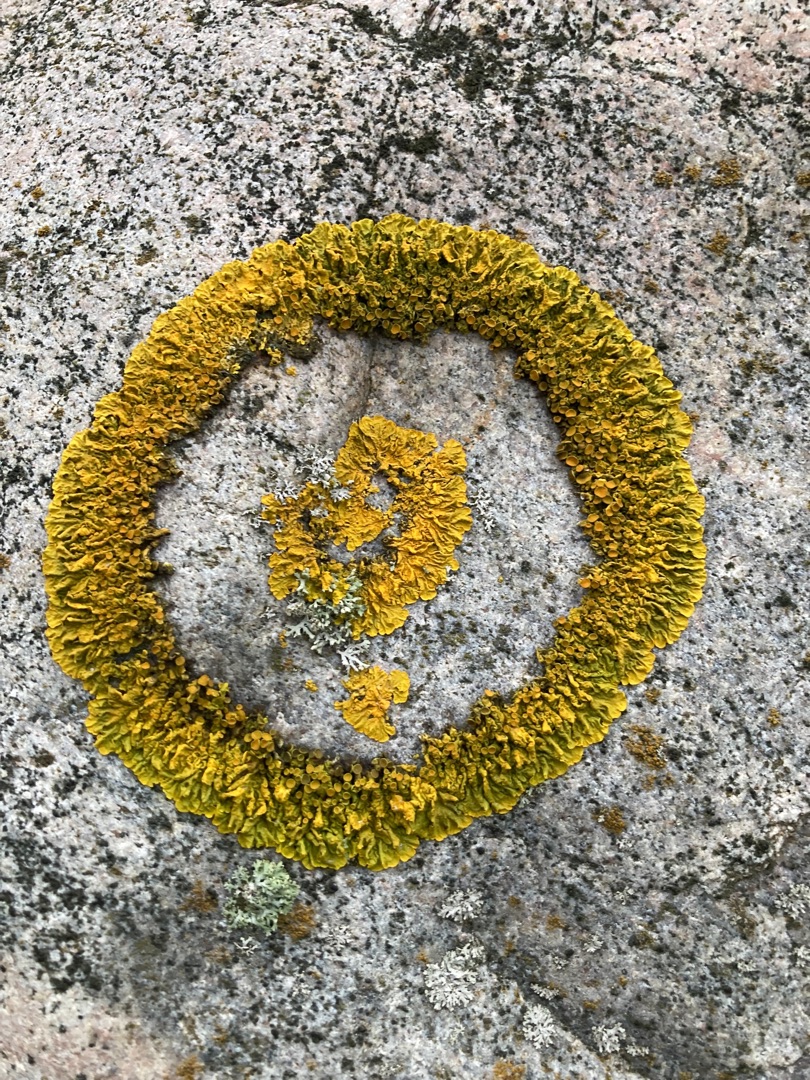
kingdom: Fungi
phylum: Ascomycota
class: Lecanoromycetes
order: Teloschistales
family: Teloschistaceae
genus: Xanthoria
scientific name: Xanthoria parietina
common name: Almindelig væggelav
